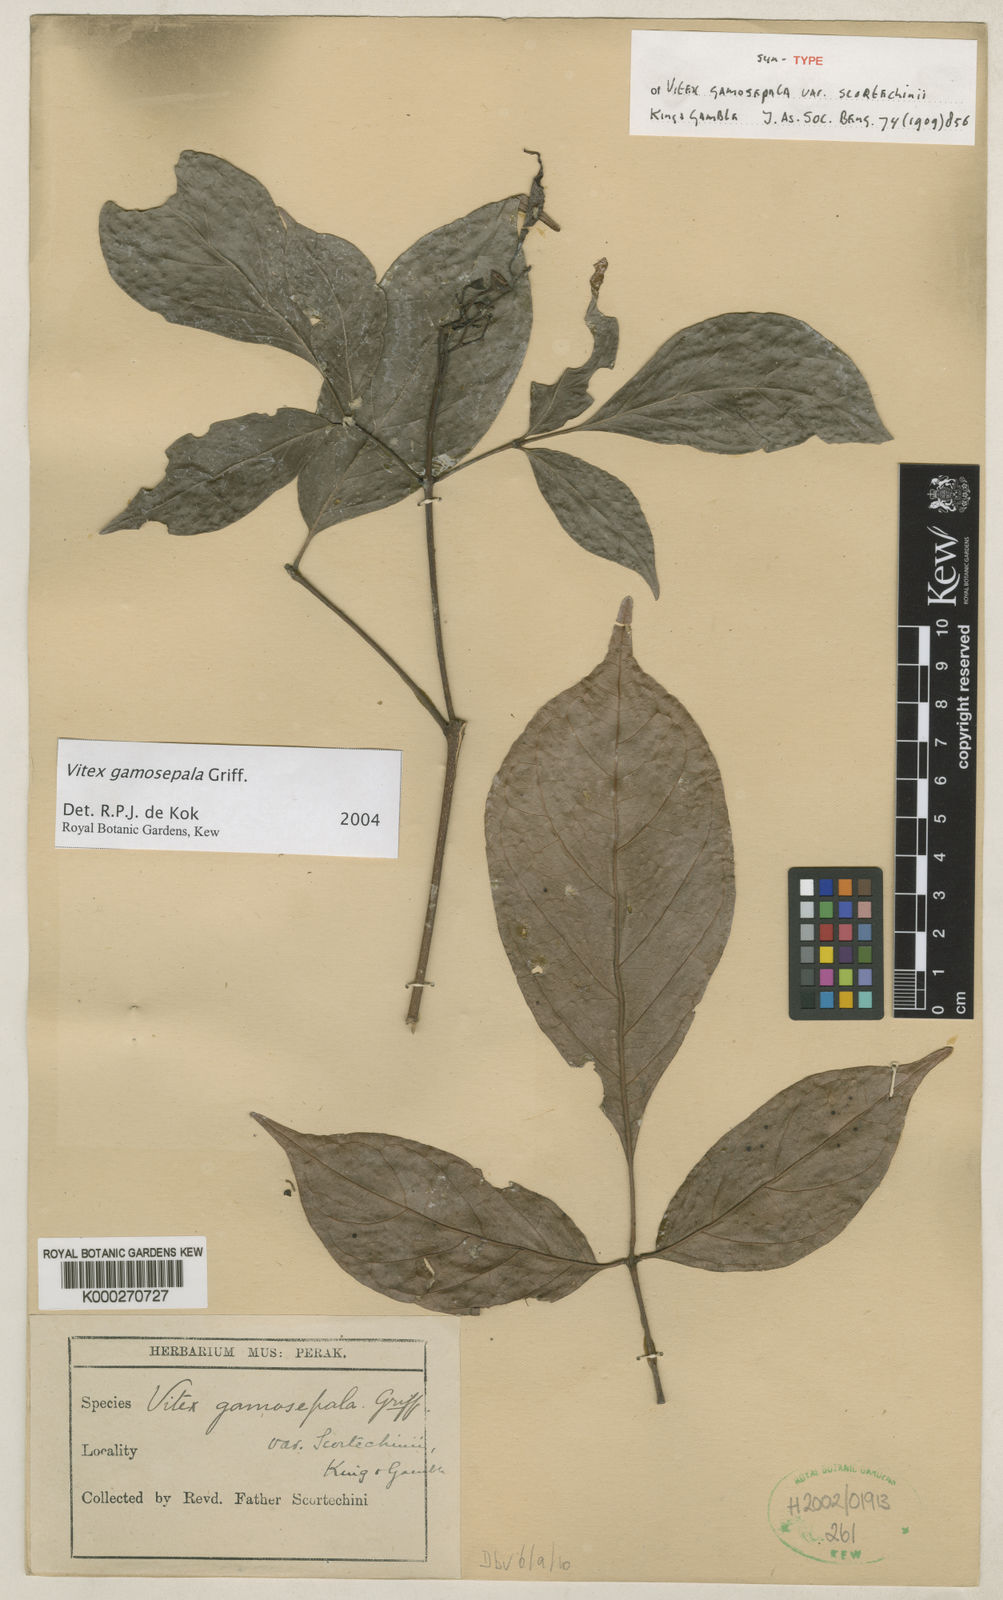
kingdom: Plantae
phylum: Tracheophyta
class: Magnoliopsida
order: Lamiales
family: Lamiaceae
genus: Vitex
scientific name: Vitex gamosepala
